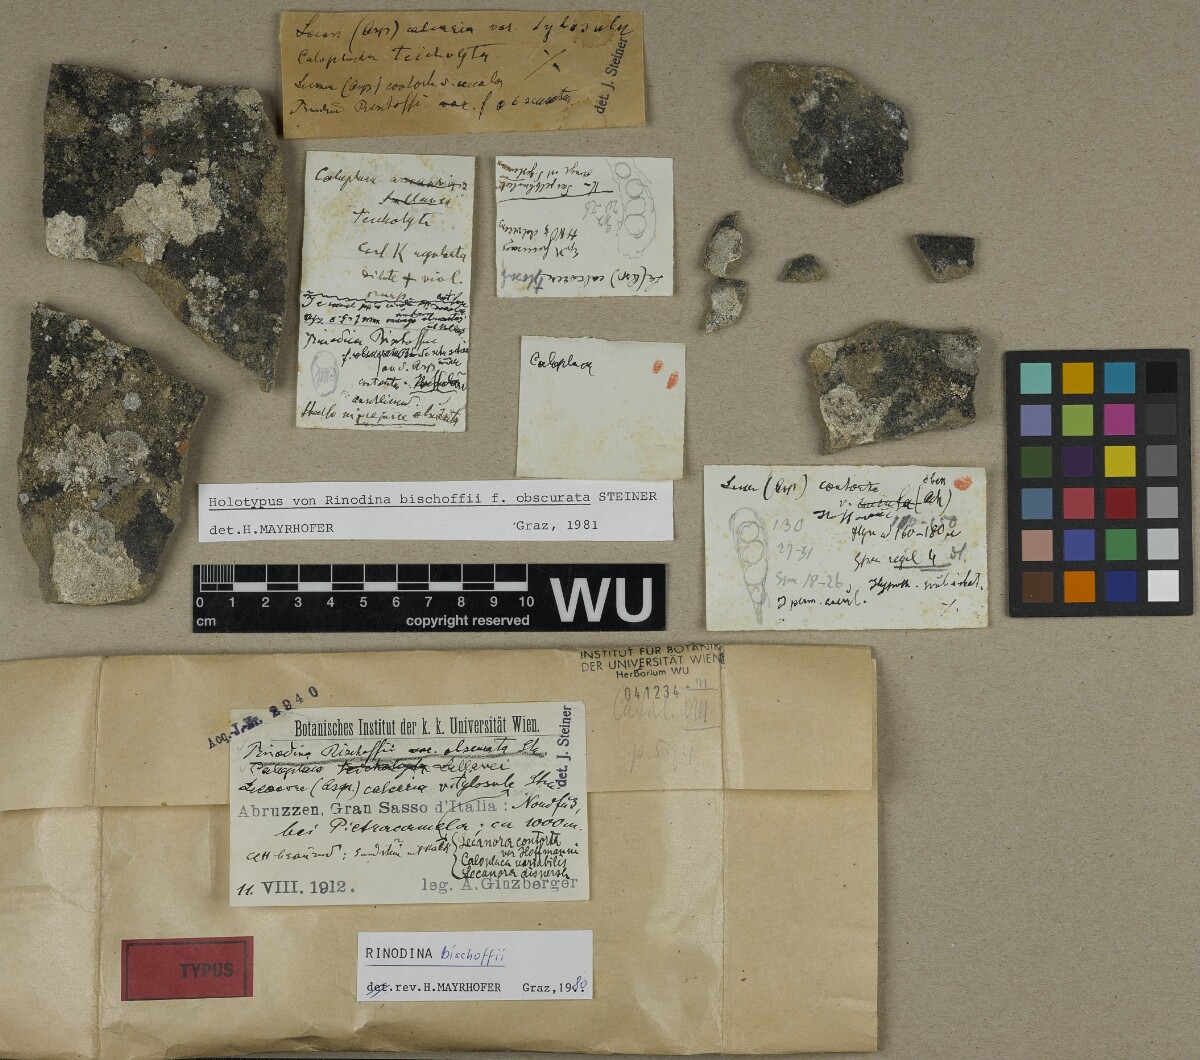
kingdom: Fungi
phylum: Ascomycota
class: Lecanoromycetes
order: Caliciales
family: Physciaceae
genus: Rinodina
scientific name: Rinodina bischoffii
